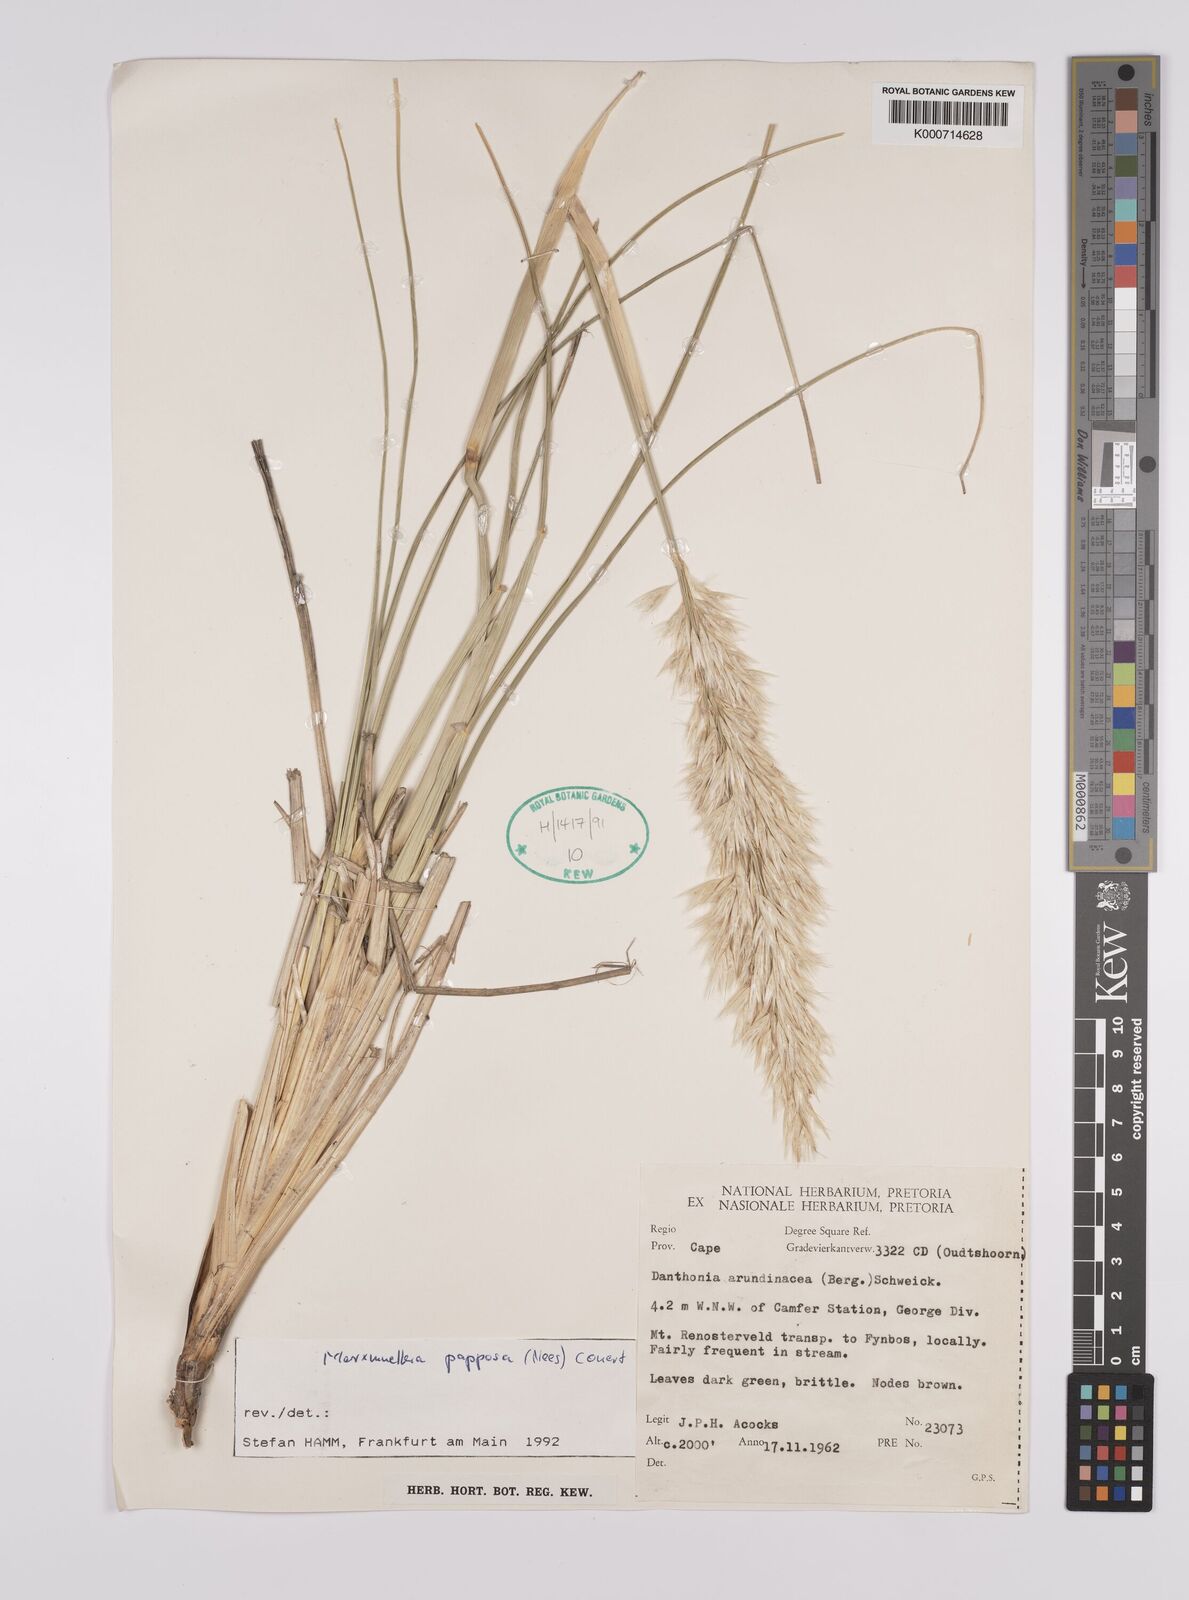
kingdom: Plantae
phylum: Tracheophyta
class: Liliopsida
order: Poales
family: Poaceae
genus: Rytidosperma
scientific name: Rytidosperma
